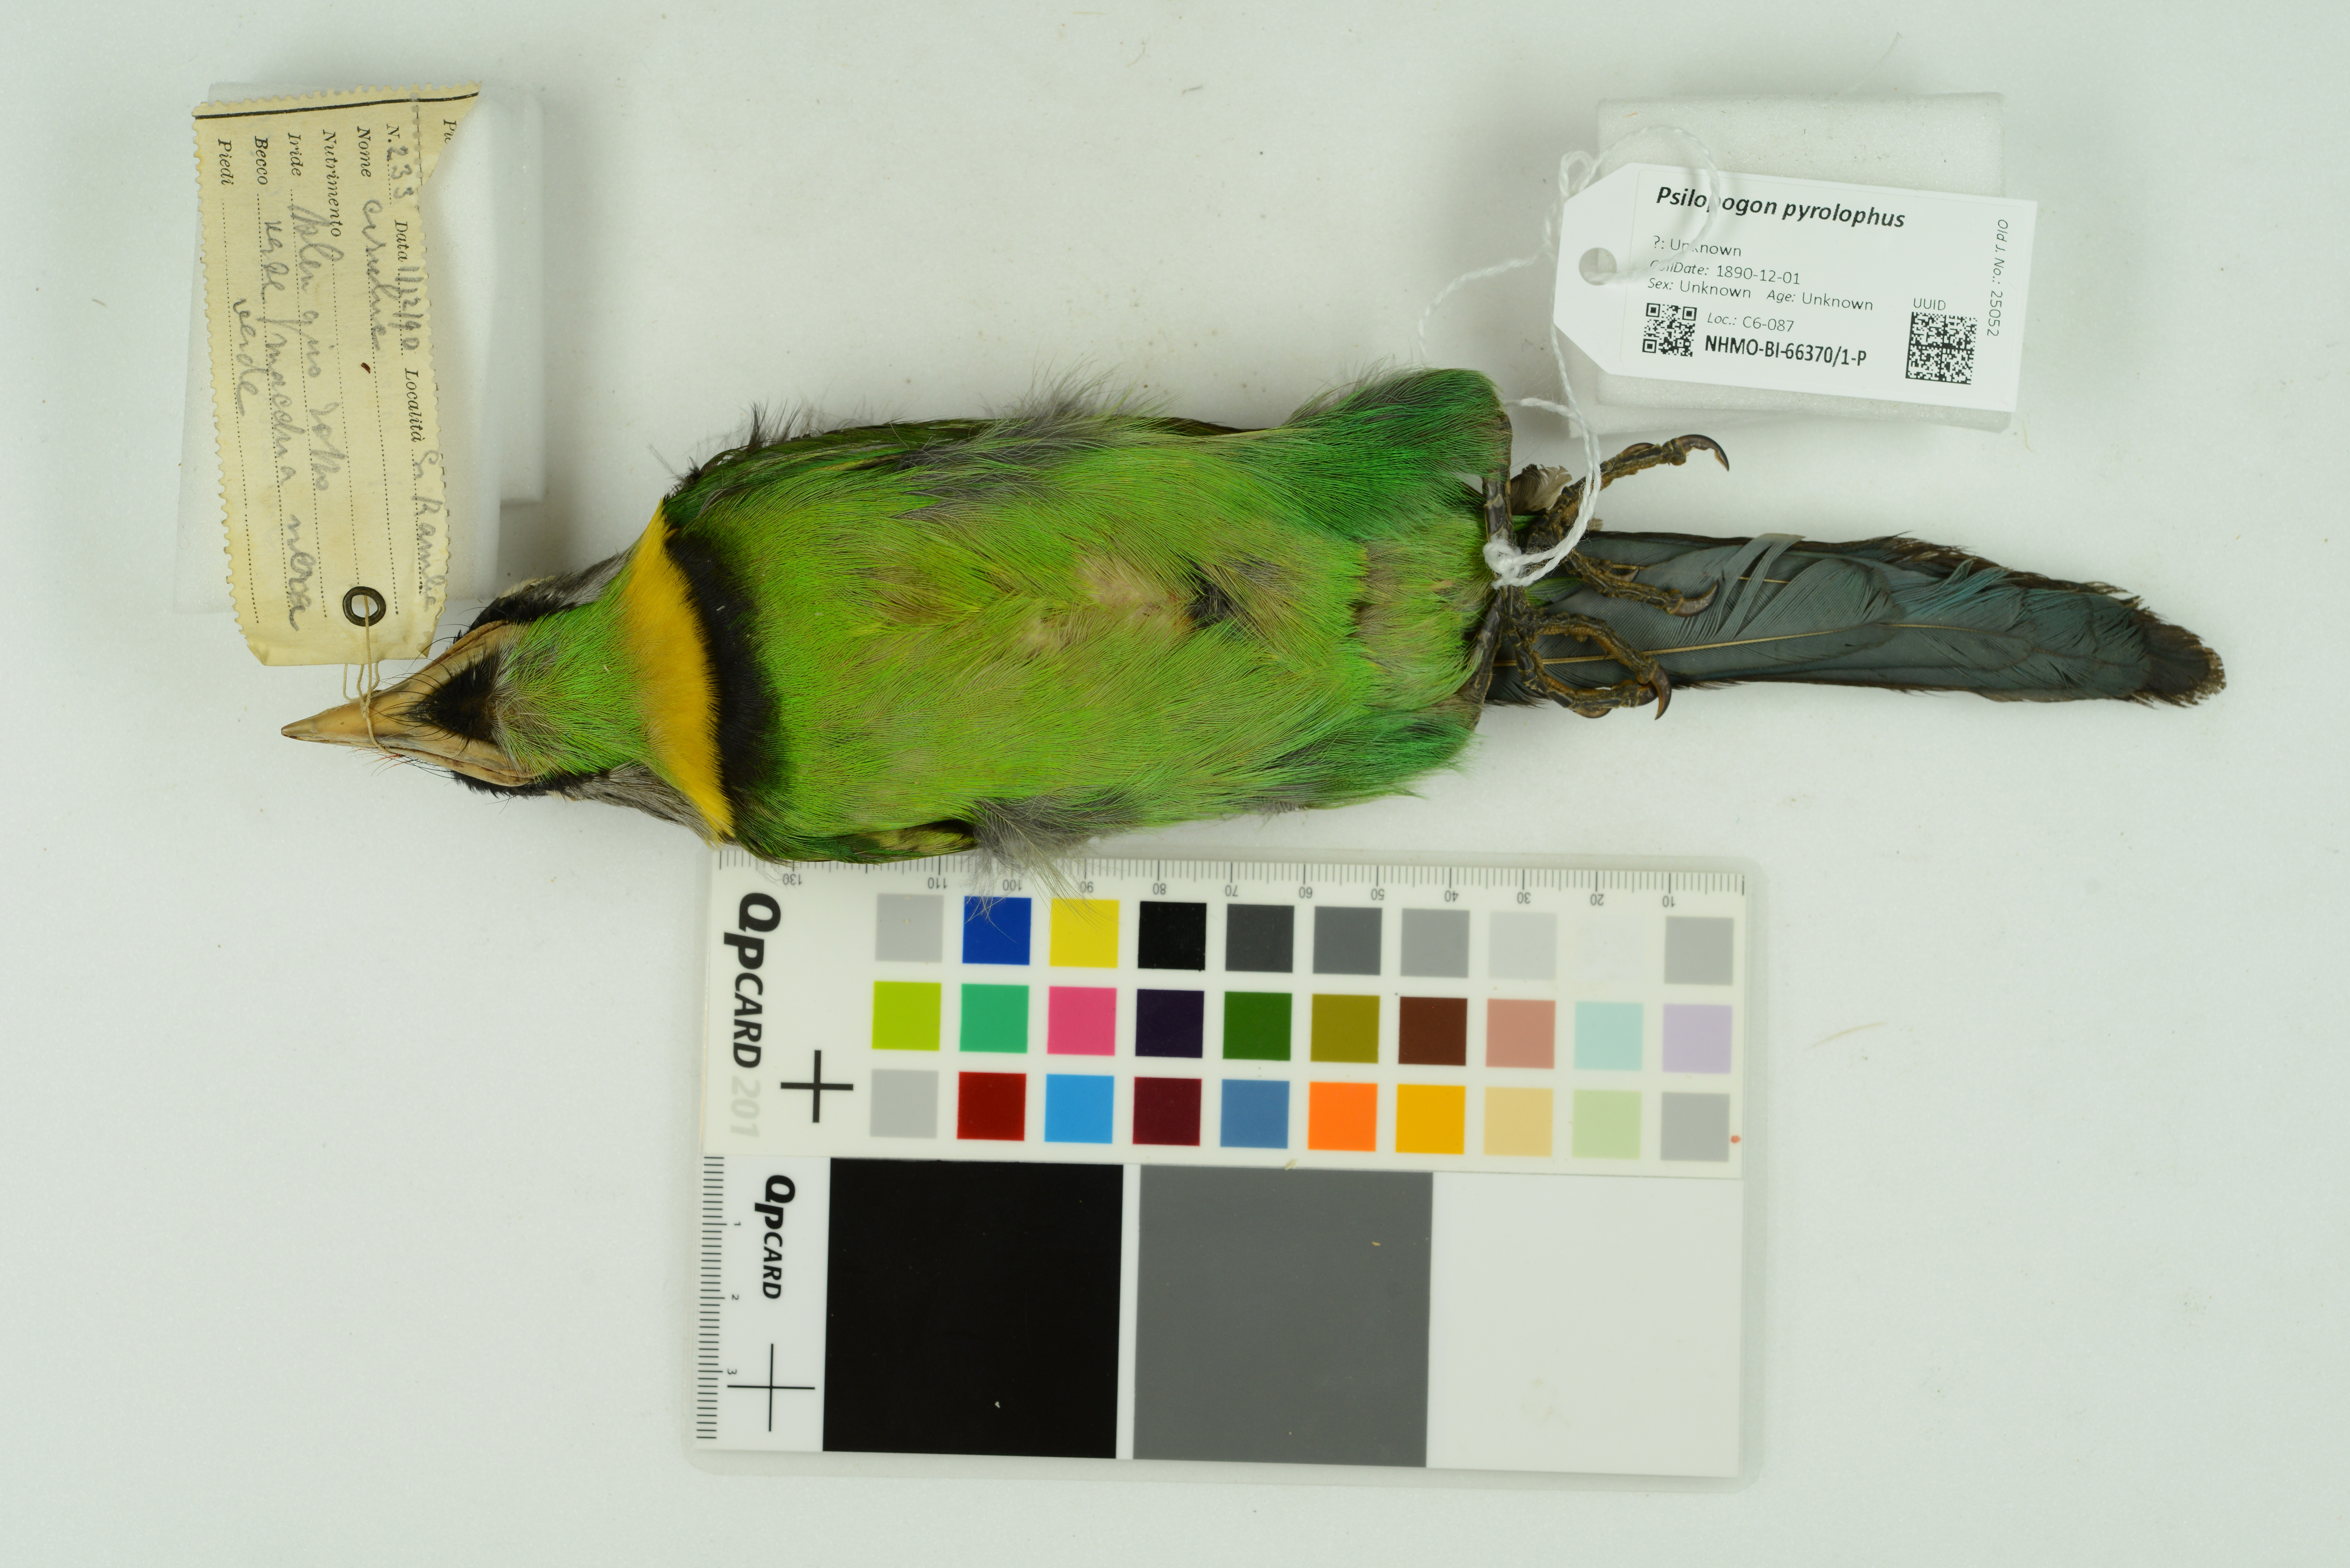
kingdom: Animalia
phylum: Chordata
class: Aves
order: Piciformes
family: Megalaimidae
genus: Psilopogon
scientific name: Psilopogon pyrolophus
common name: Fire-tufted barbet
